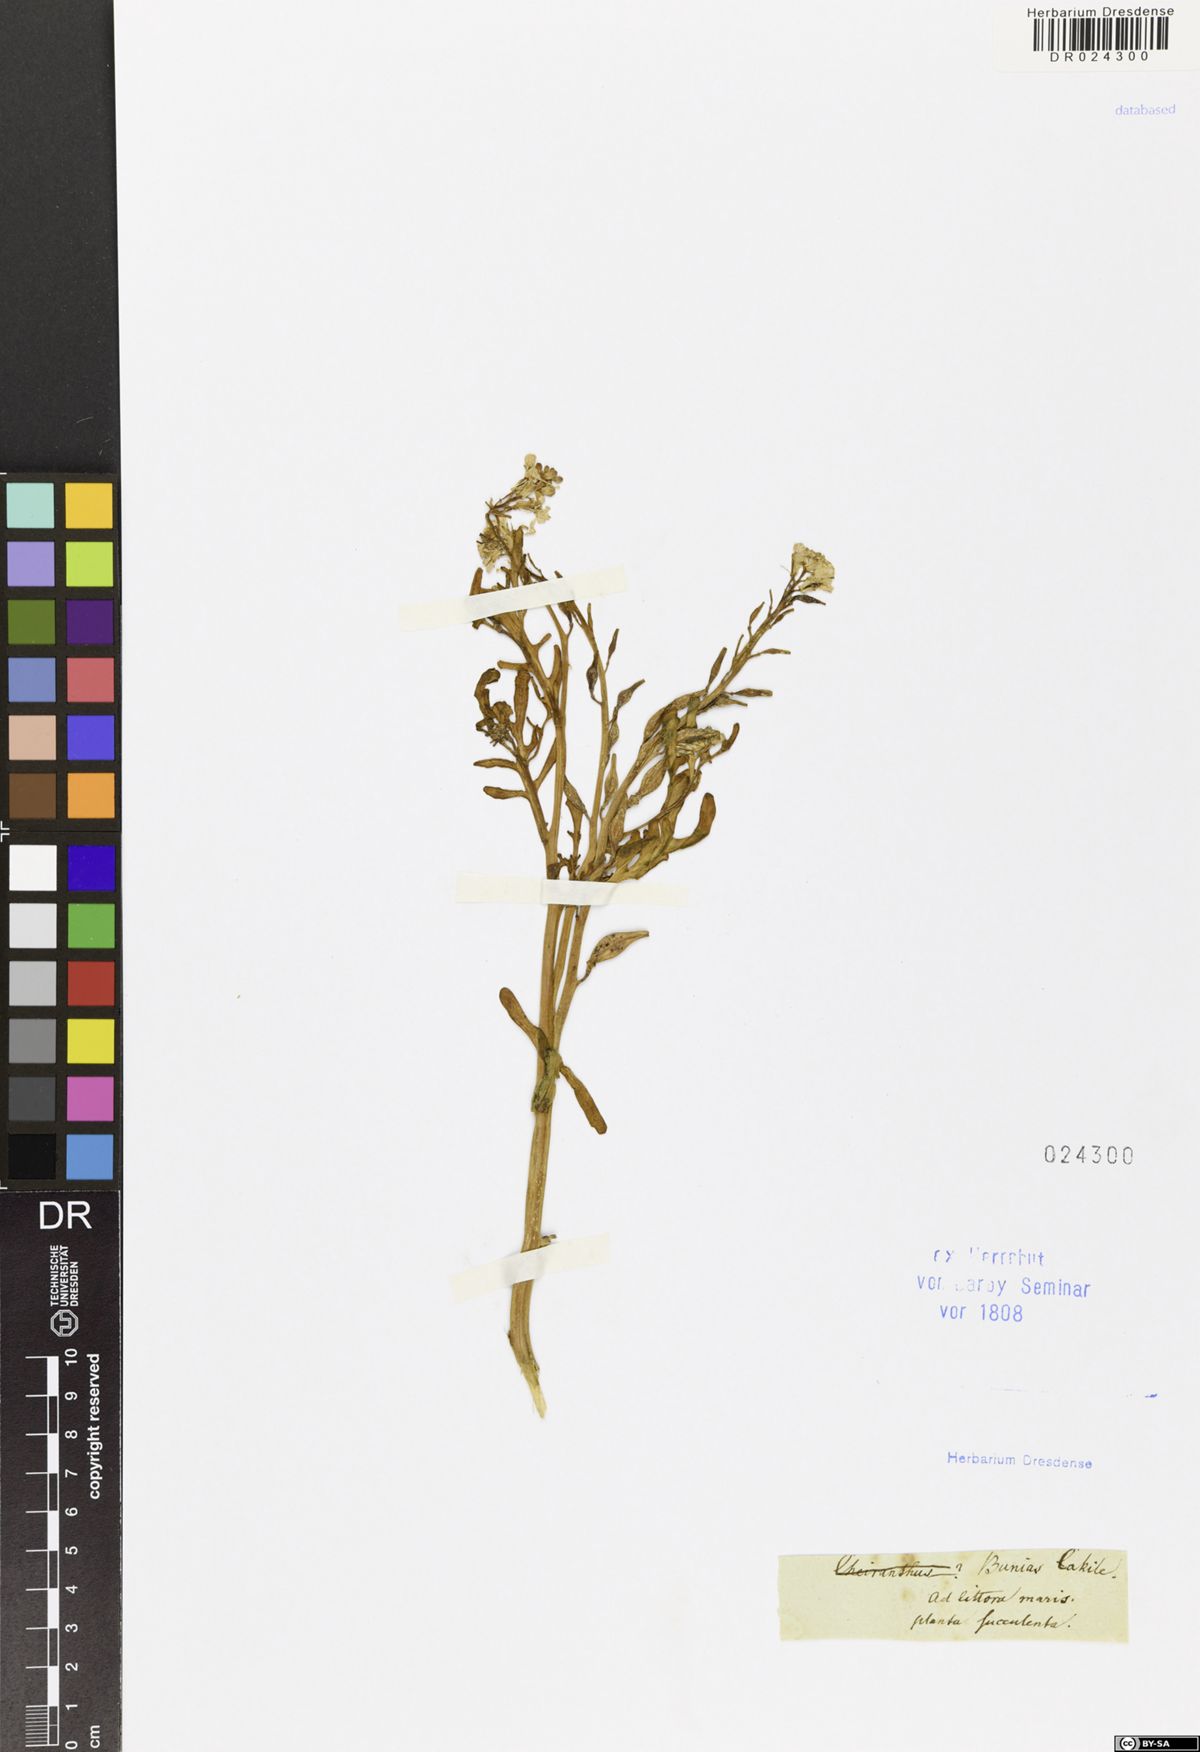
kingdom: Plantae
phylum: Tracheophyta
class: Magnoliopsida
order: Brassicales
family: Brassicaceae
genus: Cakile
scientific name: Cakile maritima
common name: Sea rocket
